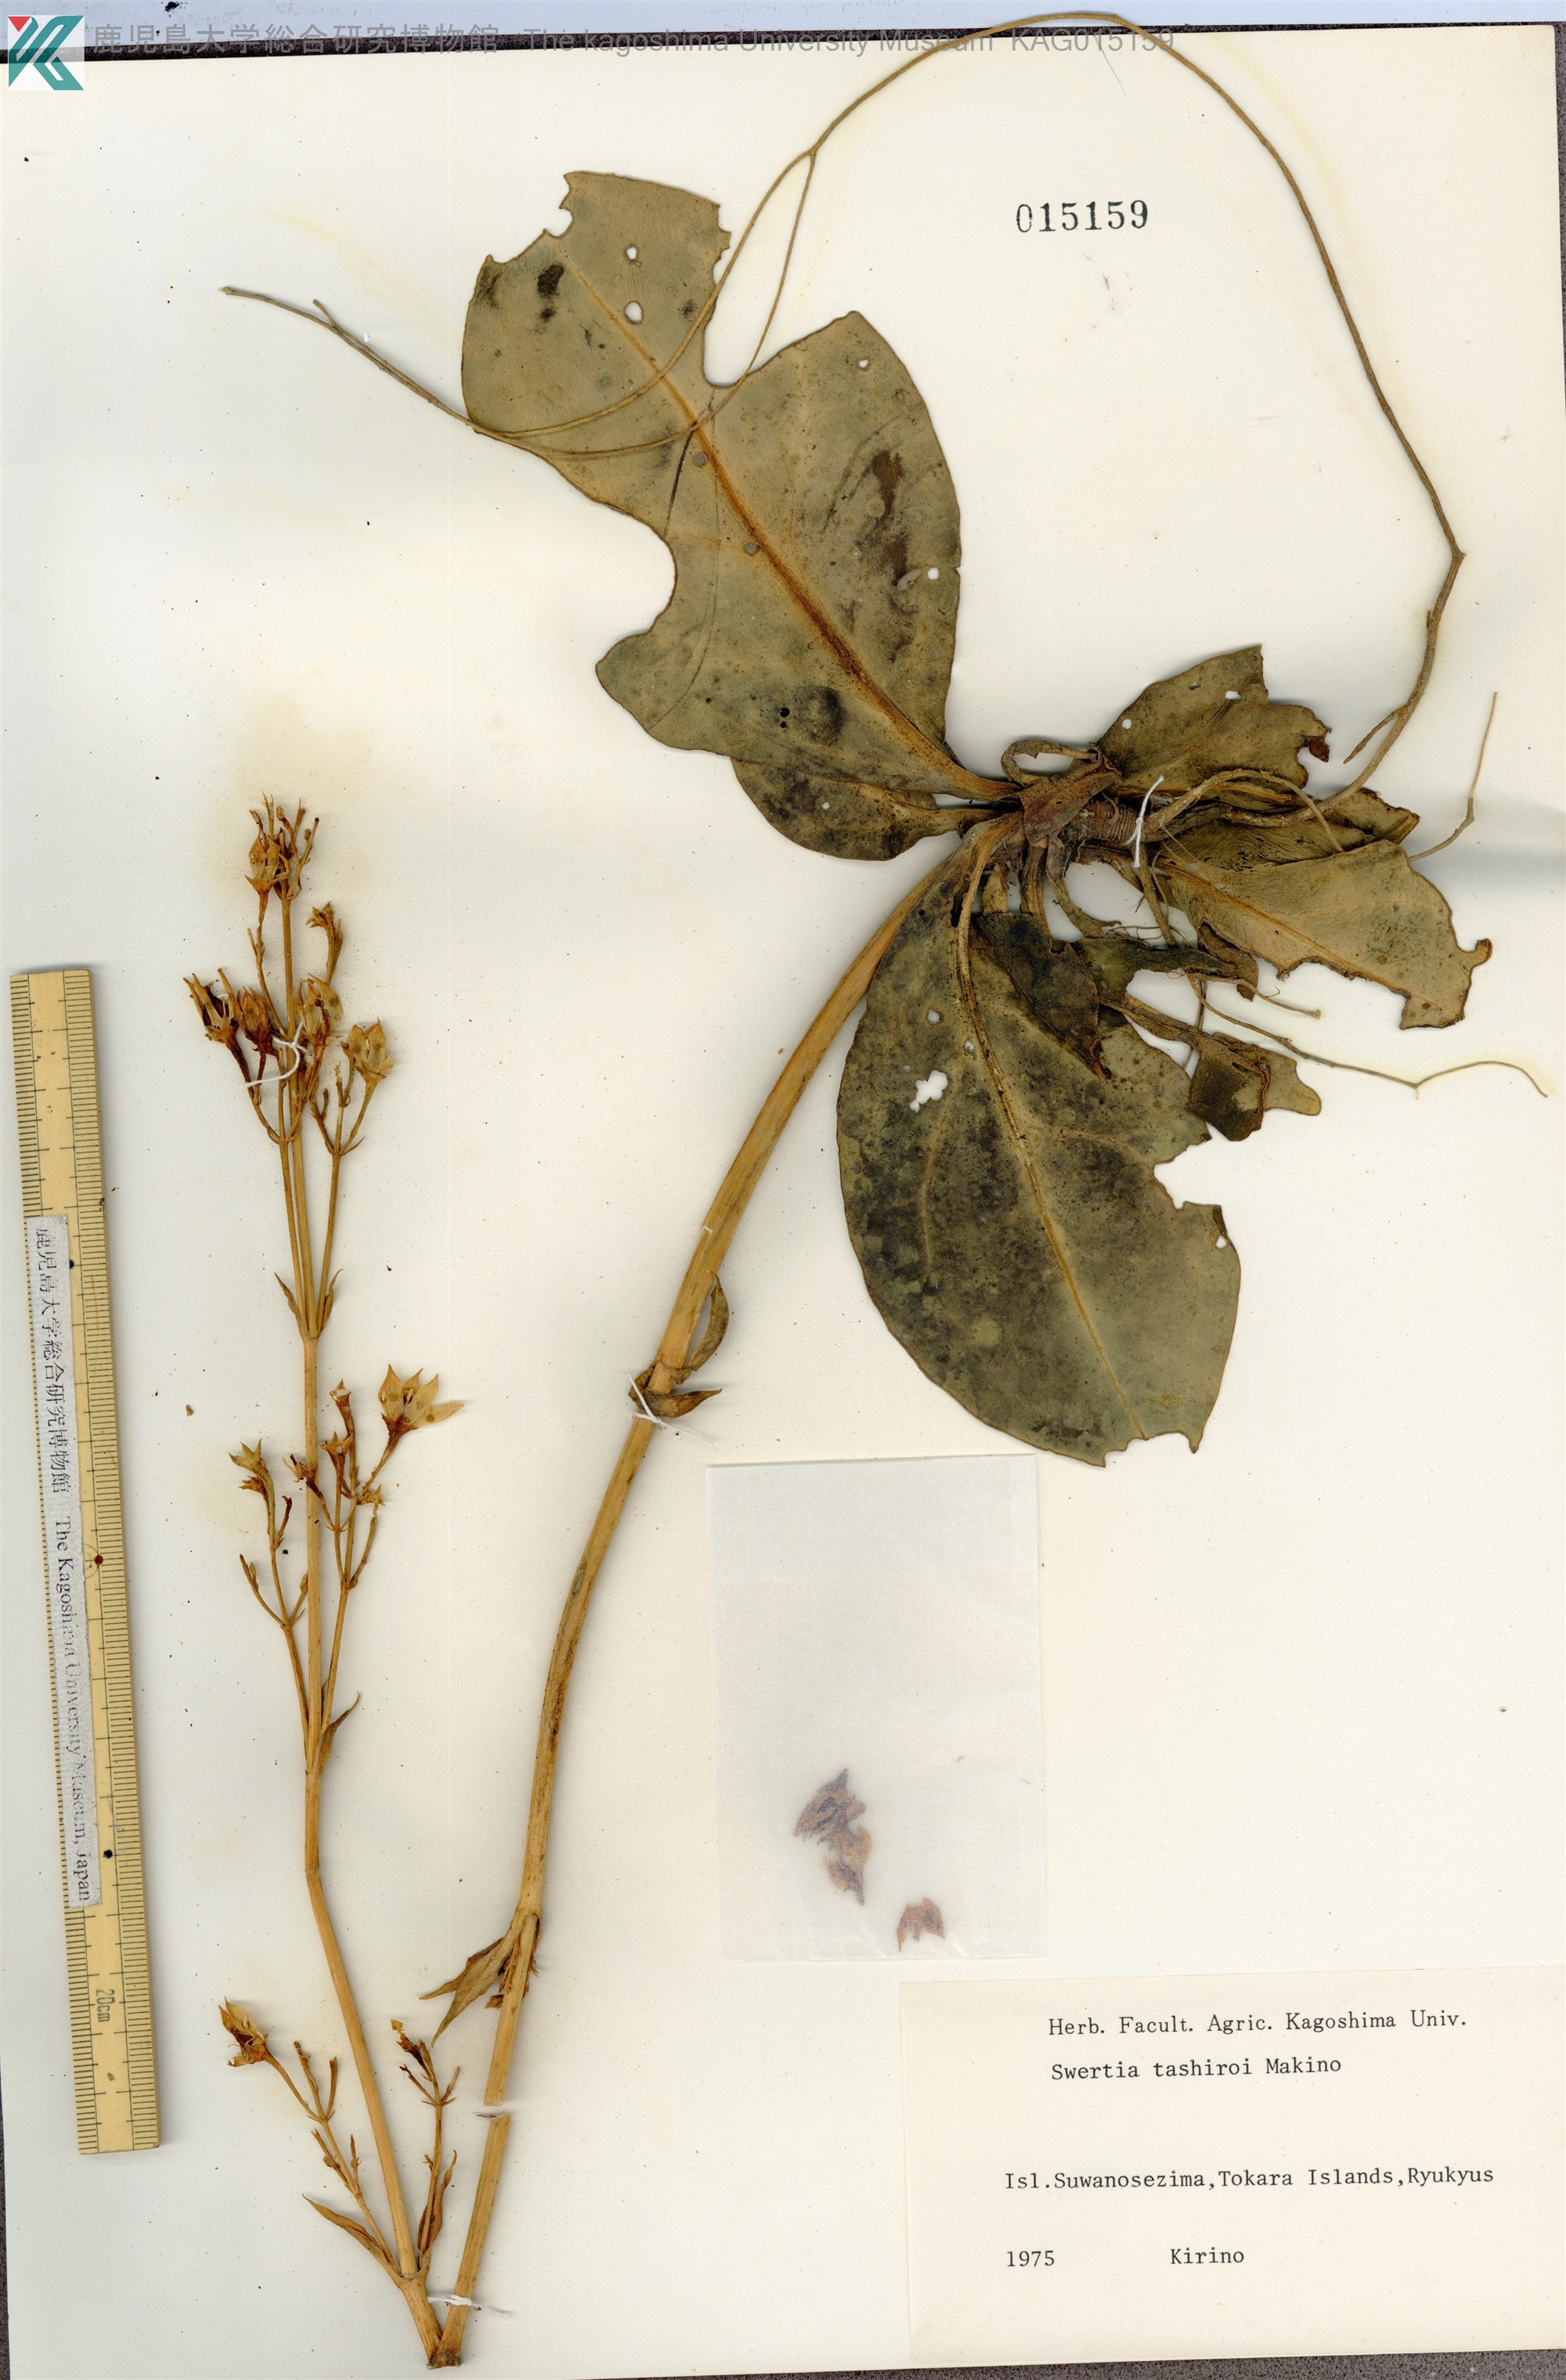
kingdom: Plantae
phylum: Tracheophyta
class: Magnoliopsida
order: Gentianales
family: Gentianaceae
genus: Swertia
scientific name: Swertia tashiroi
